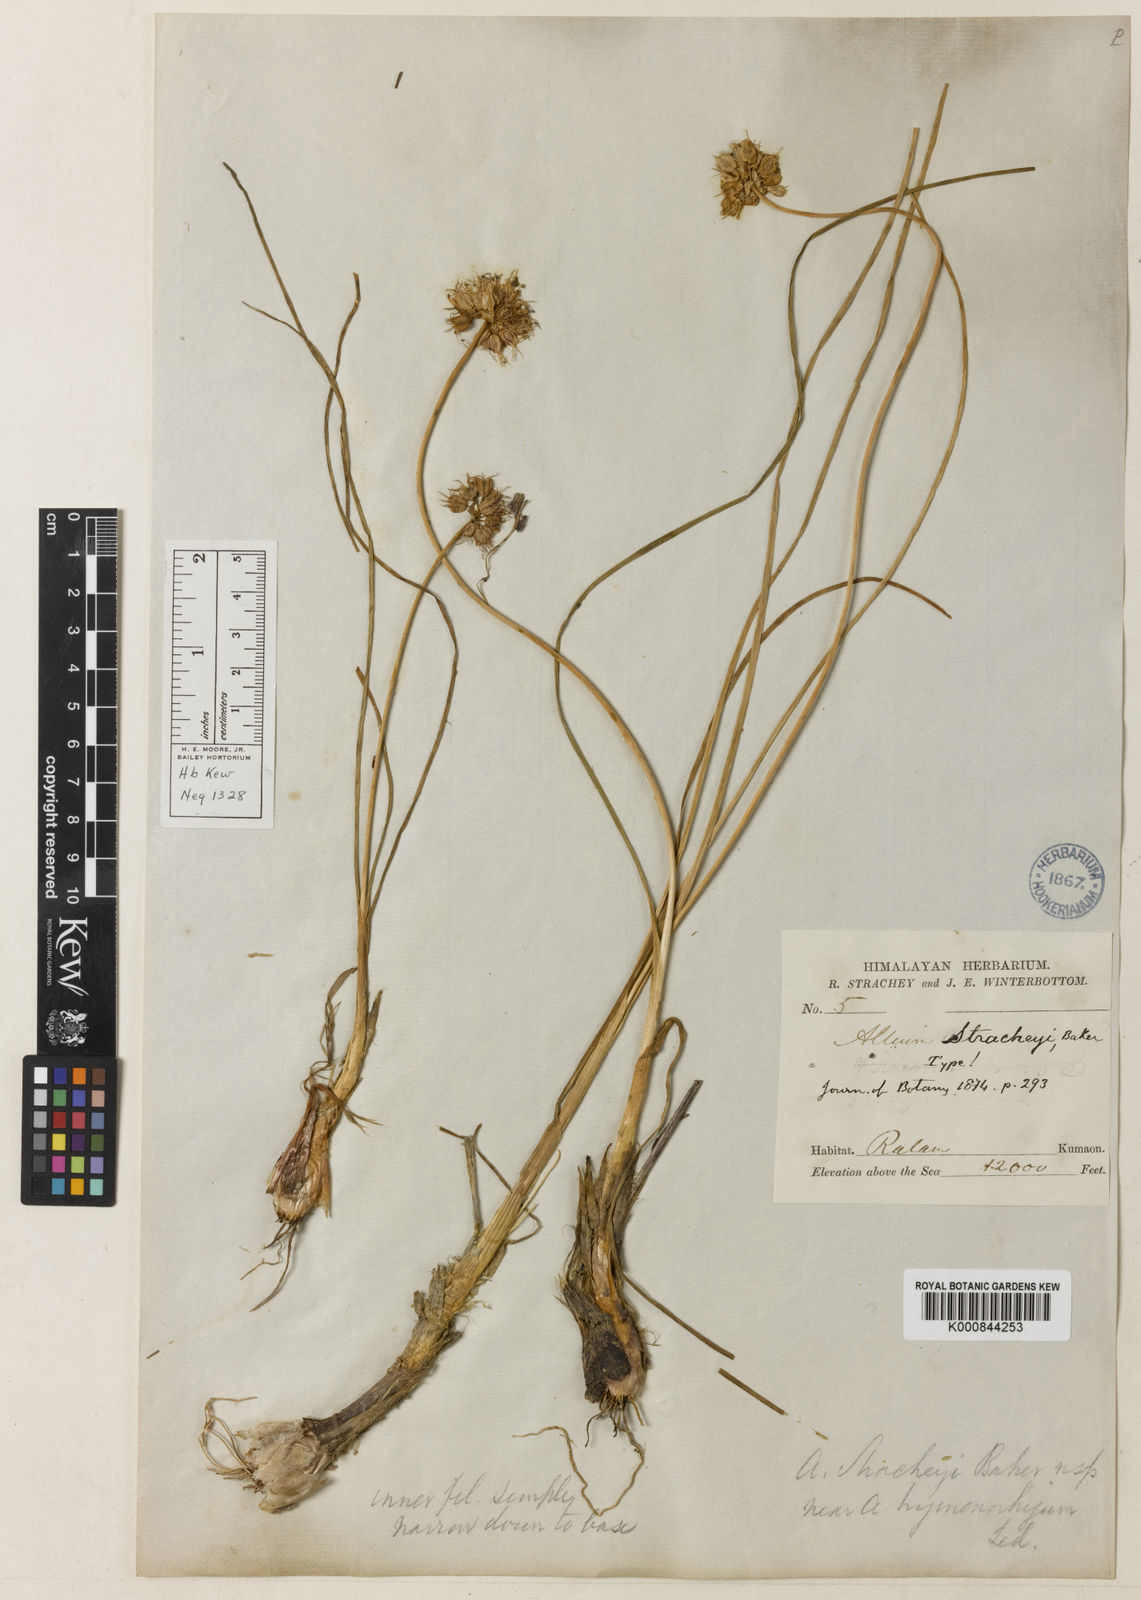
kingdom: Plantae
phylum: Tracheophyta
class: Liliopsida
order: Asparagales
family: Amaryllidaceae
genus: Allium
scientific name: Allium stracheyi
